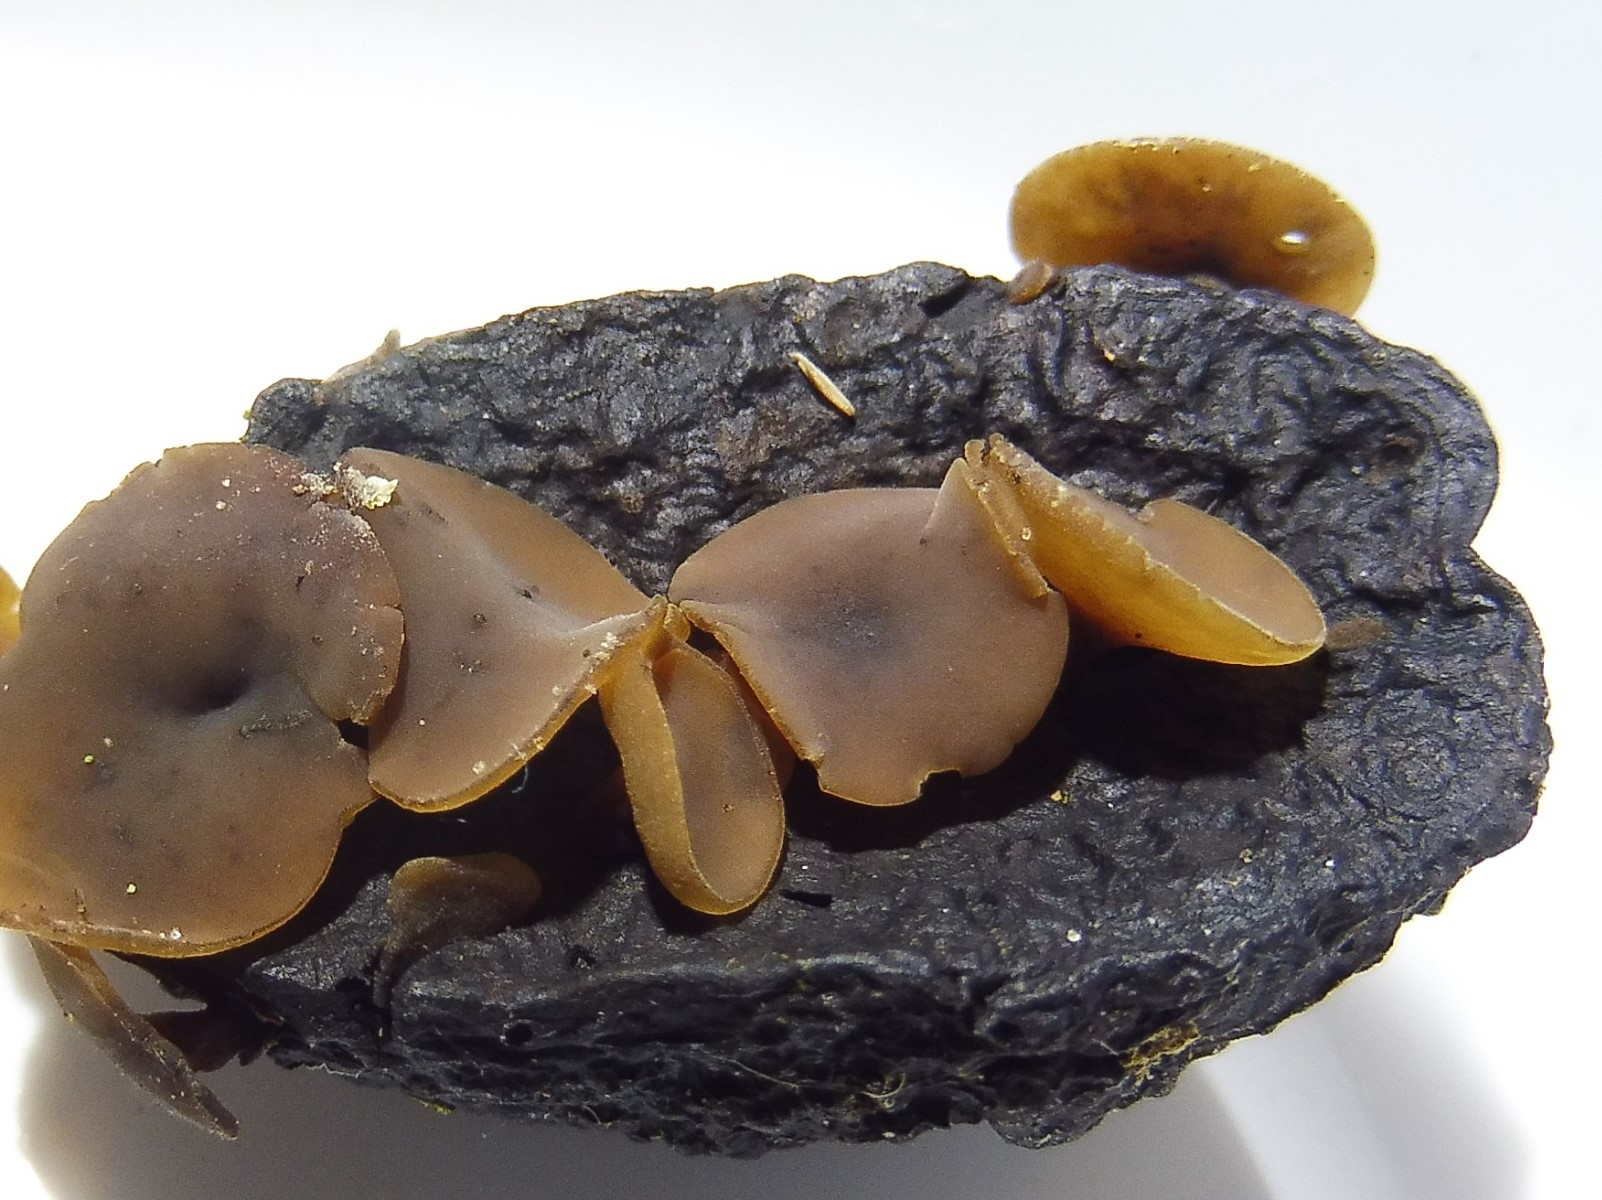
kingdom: Fungi
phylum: Ascomycota
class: Leotiomycetes
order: Helotiales
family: Sclerotiniaceae
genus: Ciboria
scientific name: Ciboria batschiana
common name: agern-knoldskive
